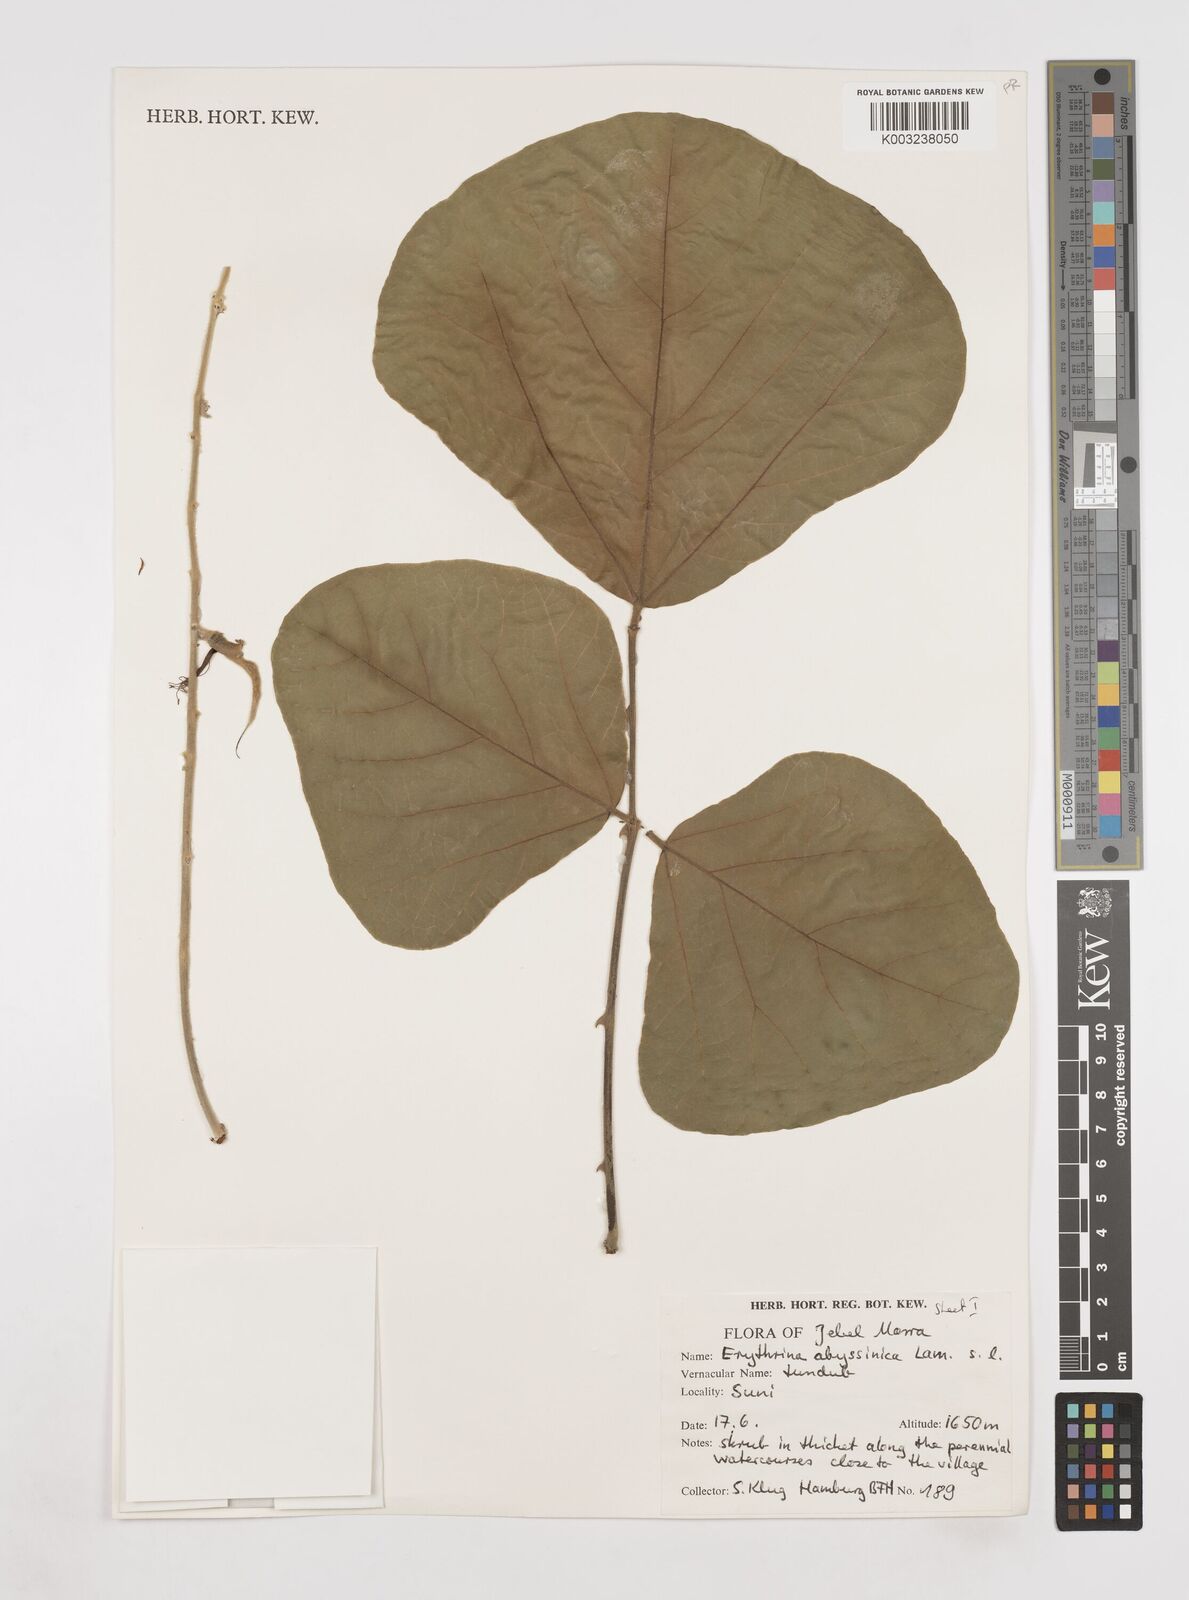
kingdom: Plantae
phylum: Tracheophyta
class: Magnoliopsida
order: Fabales
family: Fabaceae
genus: Erythrina
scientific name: Erythrina abyssinica
